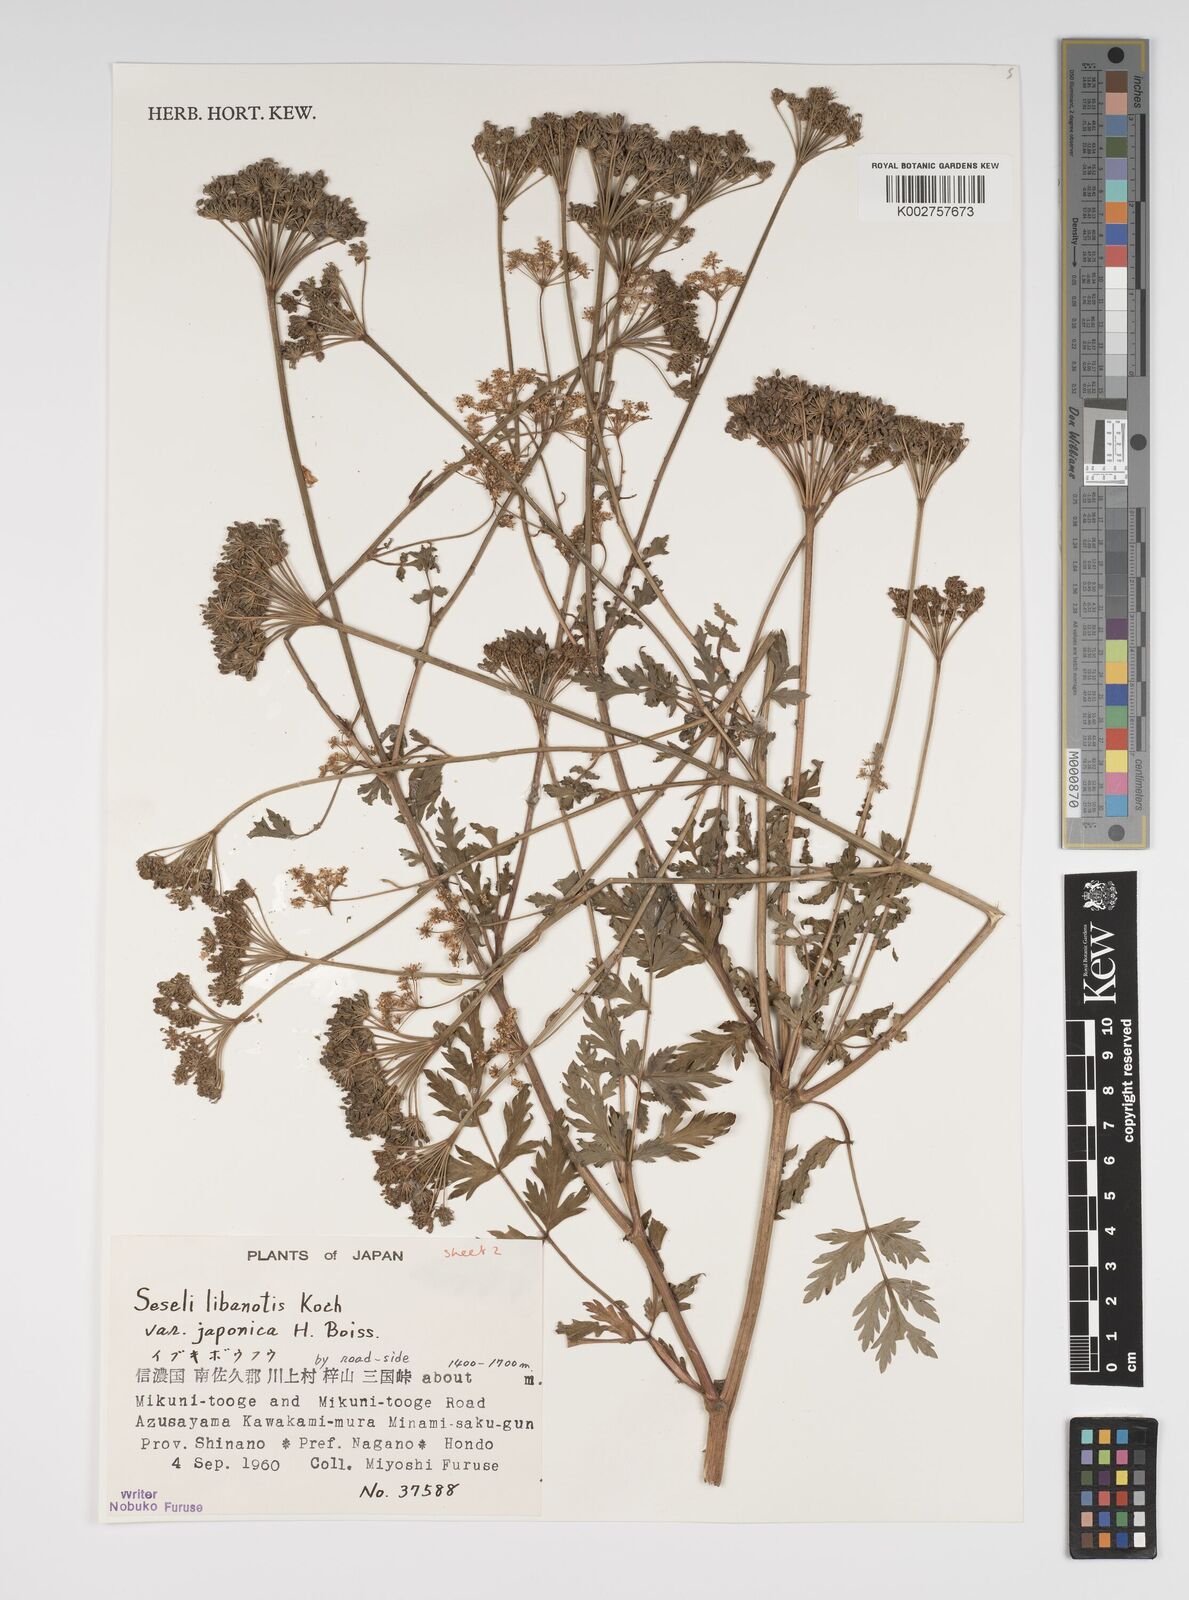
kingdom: Plantae
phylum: Tracheophyta
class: Magnoliopsida
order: Apiales
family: Apiaceae
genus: Seseli
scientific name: Seseli libanotis
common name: Mooncarrot
